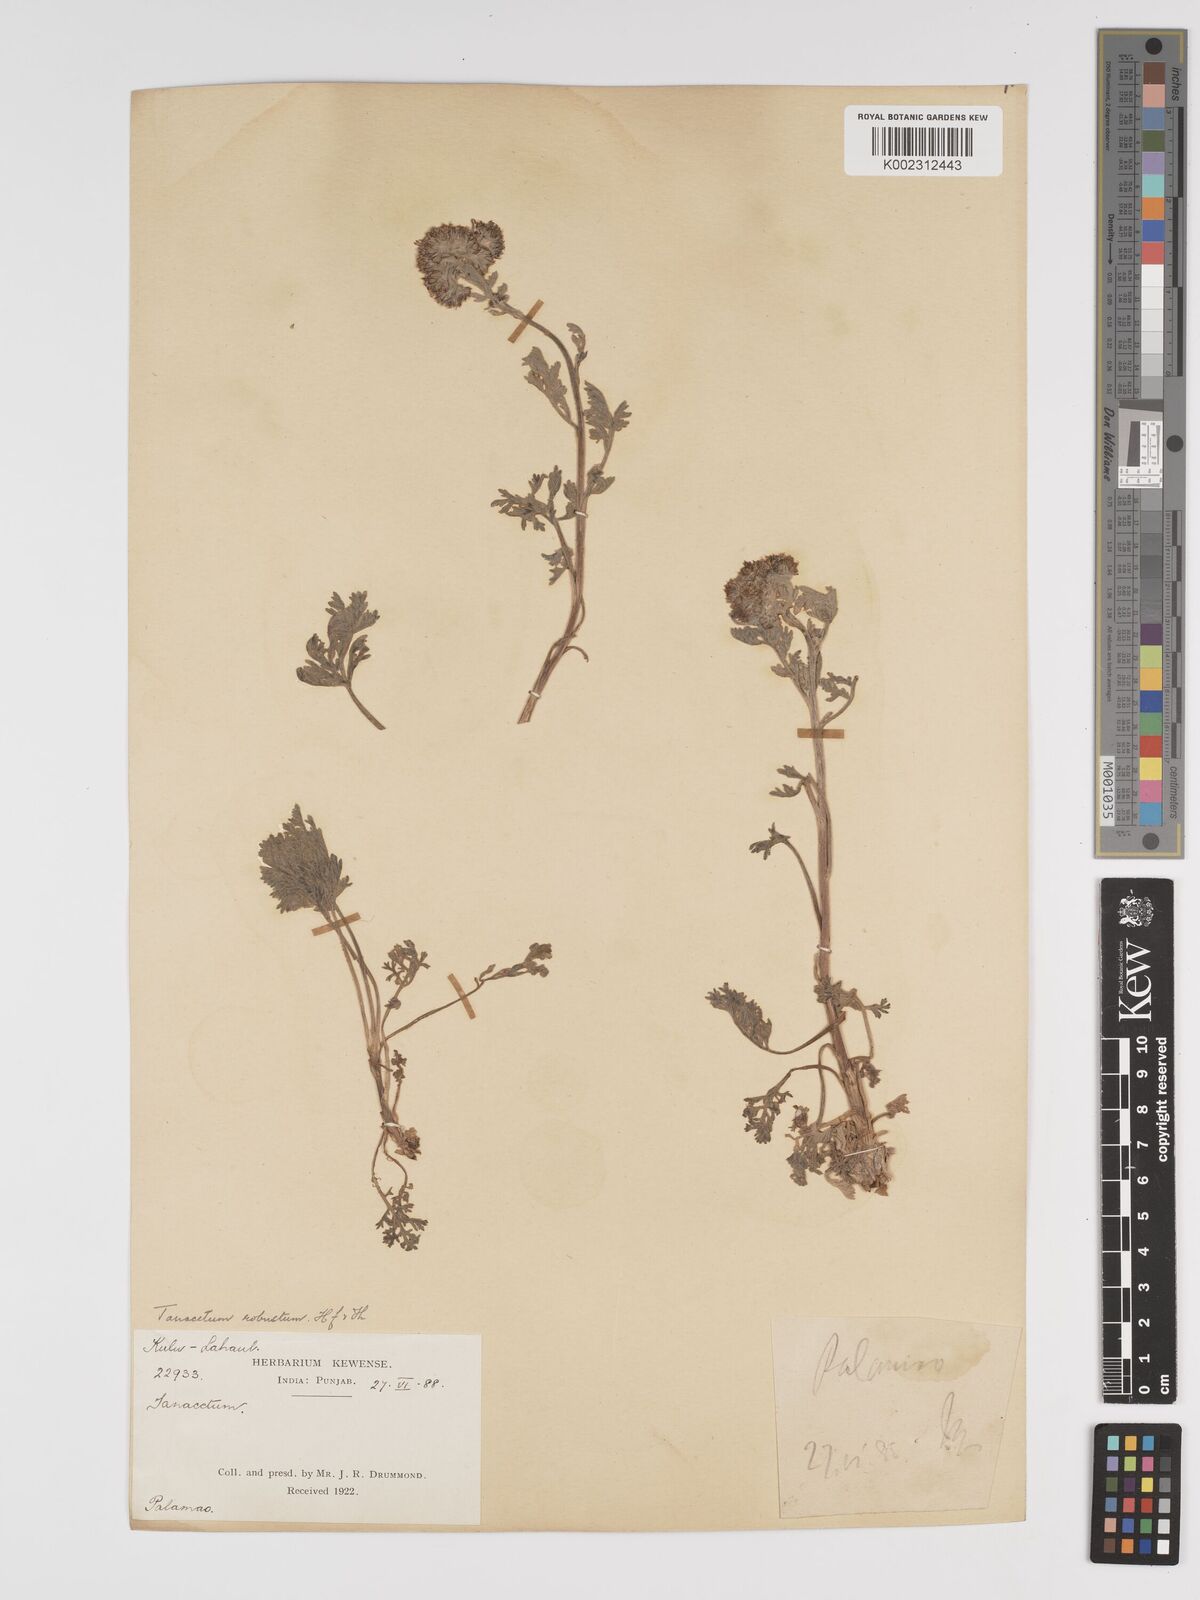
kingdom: Plantae
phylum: Tracheophyta
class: Magnoliopsida
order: Asterales
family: Asteraceae
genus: Tanacetum
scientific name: Tanacetum robustum
